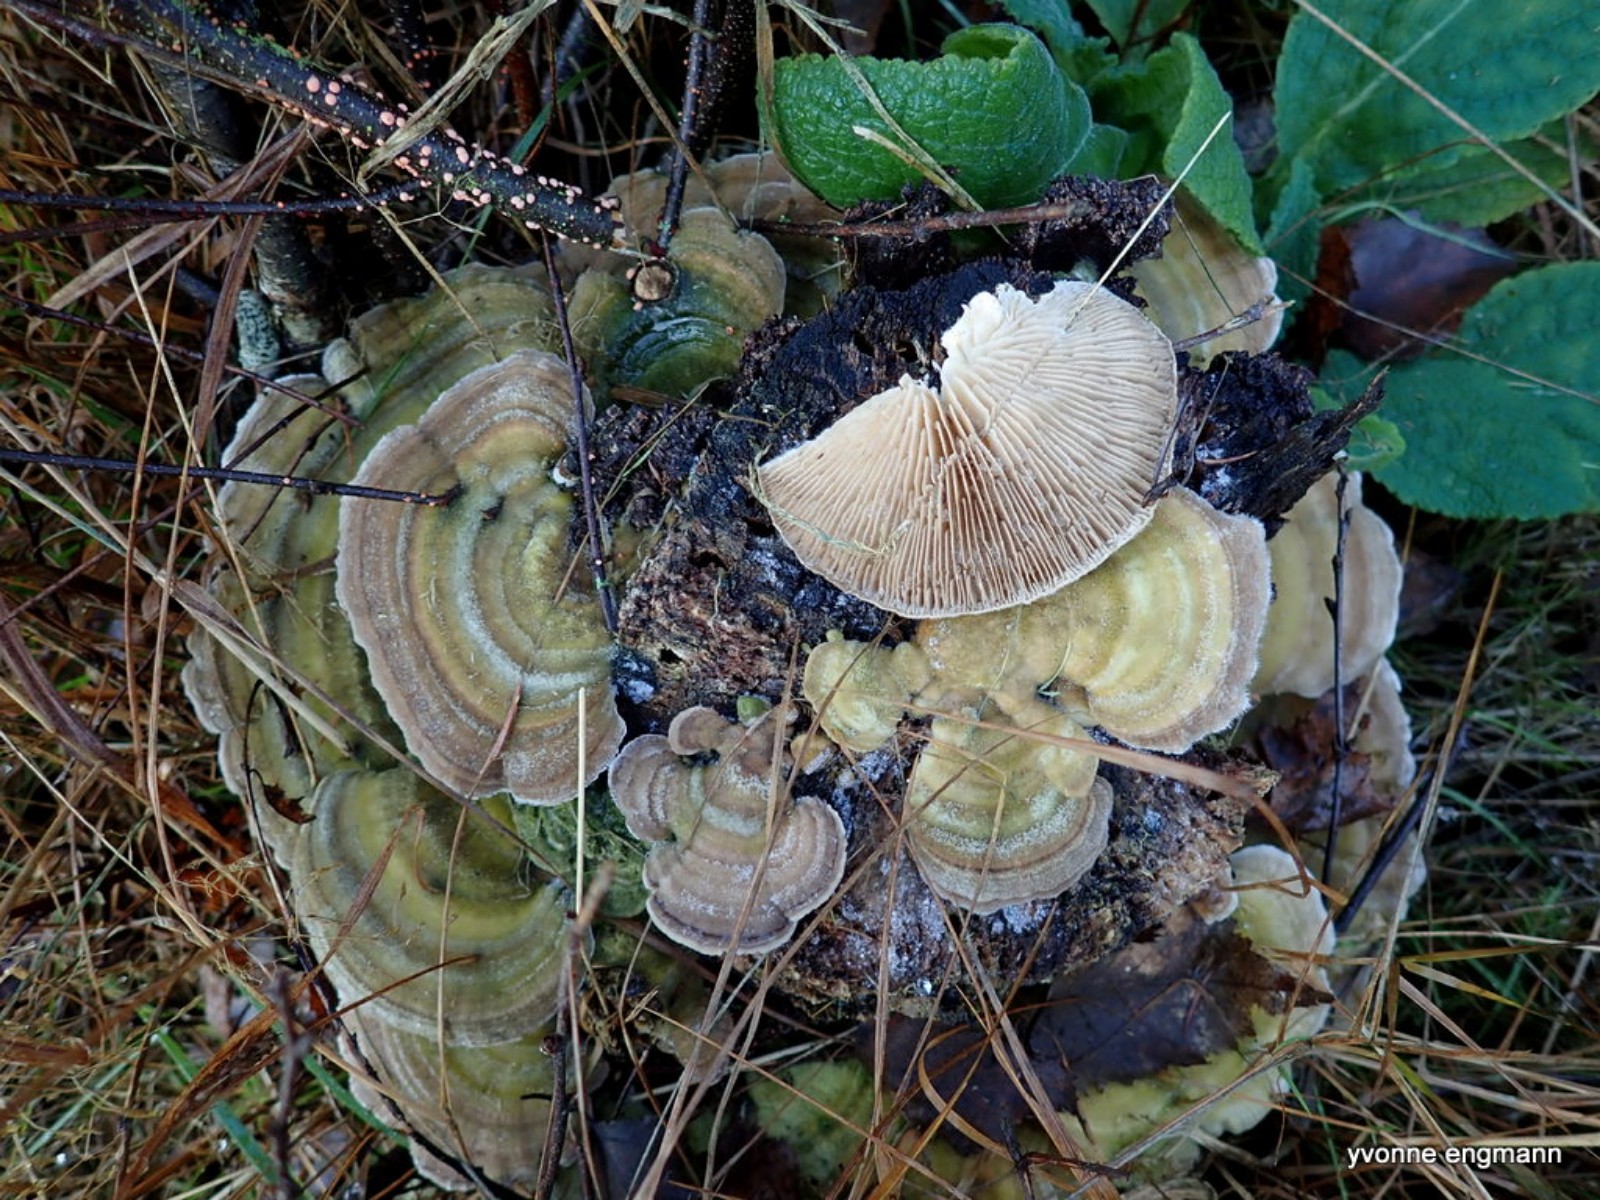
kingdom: Fungi
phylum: Basidiomycota
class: Agaricomycetes
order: Polyporales
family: Polyporaceae
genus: Lenzites
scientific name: Lenzites betulinus
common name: birke-læderporesvamp
